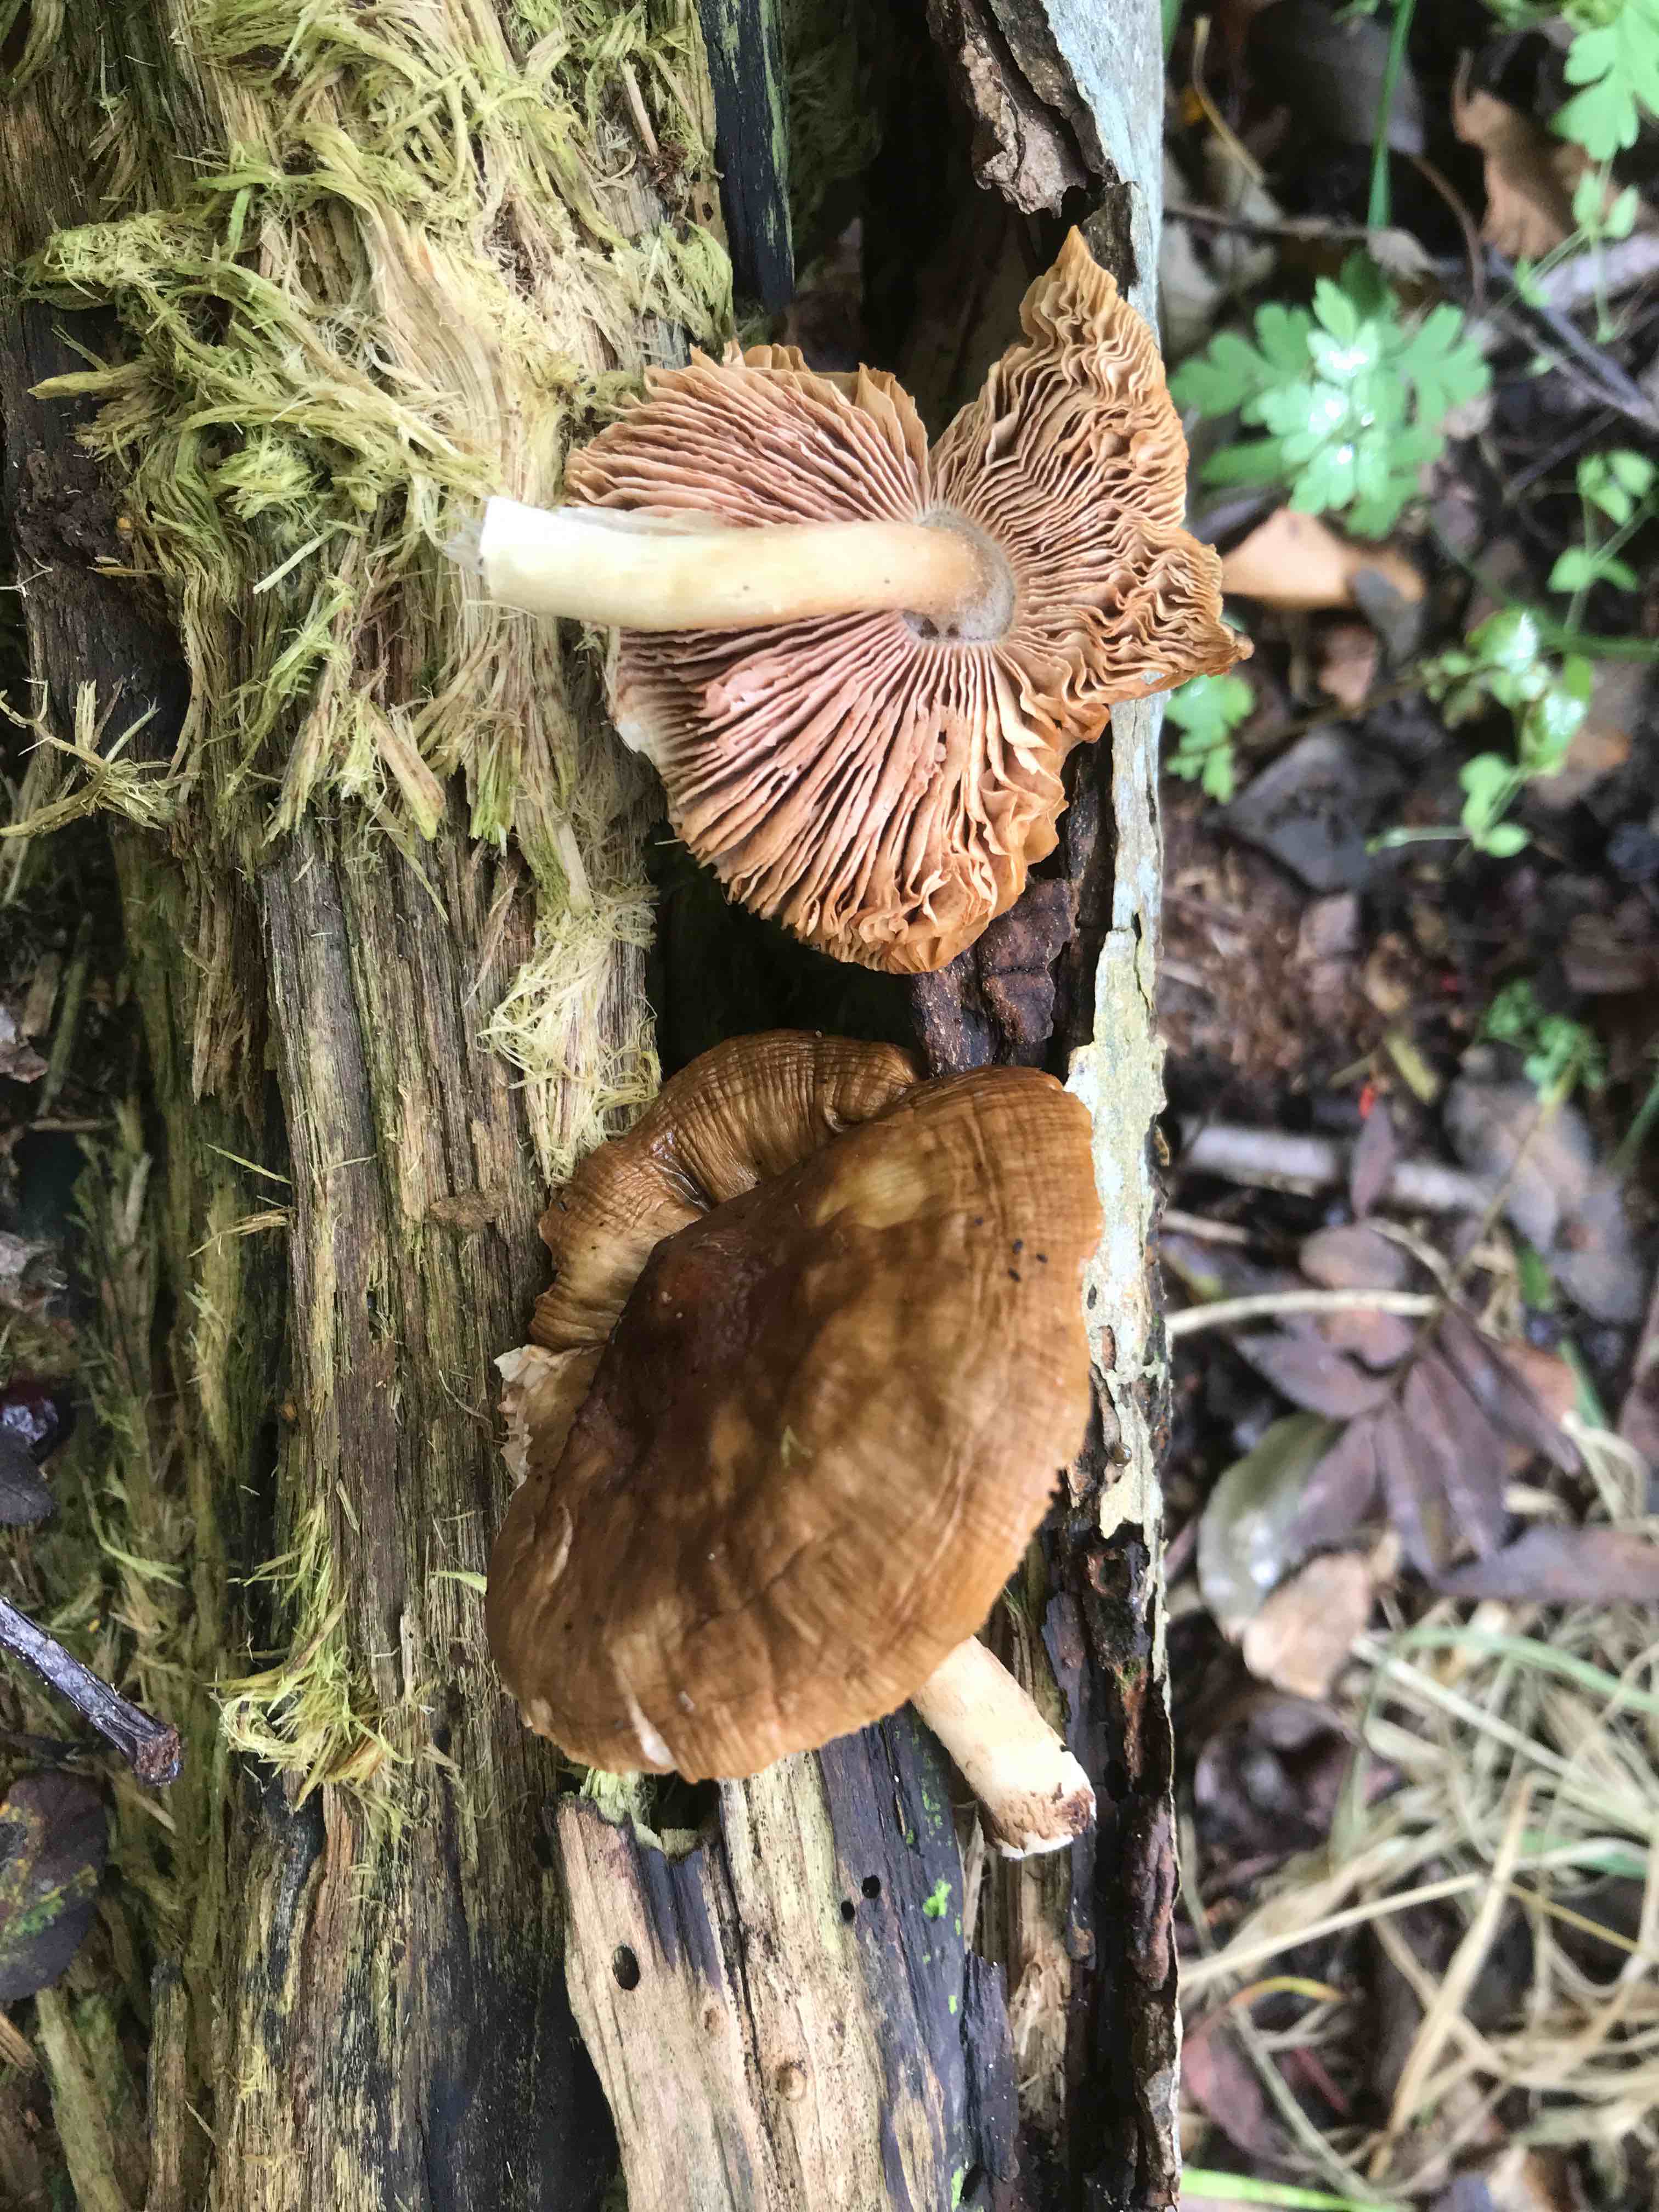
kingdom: Fungi
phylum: Basidiomycota
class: Agaricomycetes
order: Agaricales
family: Pluteaceae
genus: Pluteus
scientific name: Pluteus cervinus
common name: sodfarvet skærmhat
